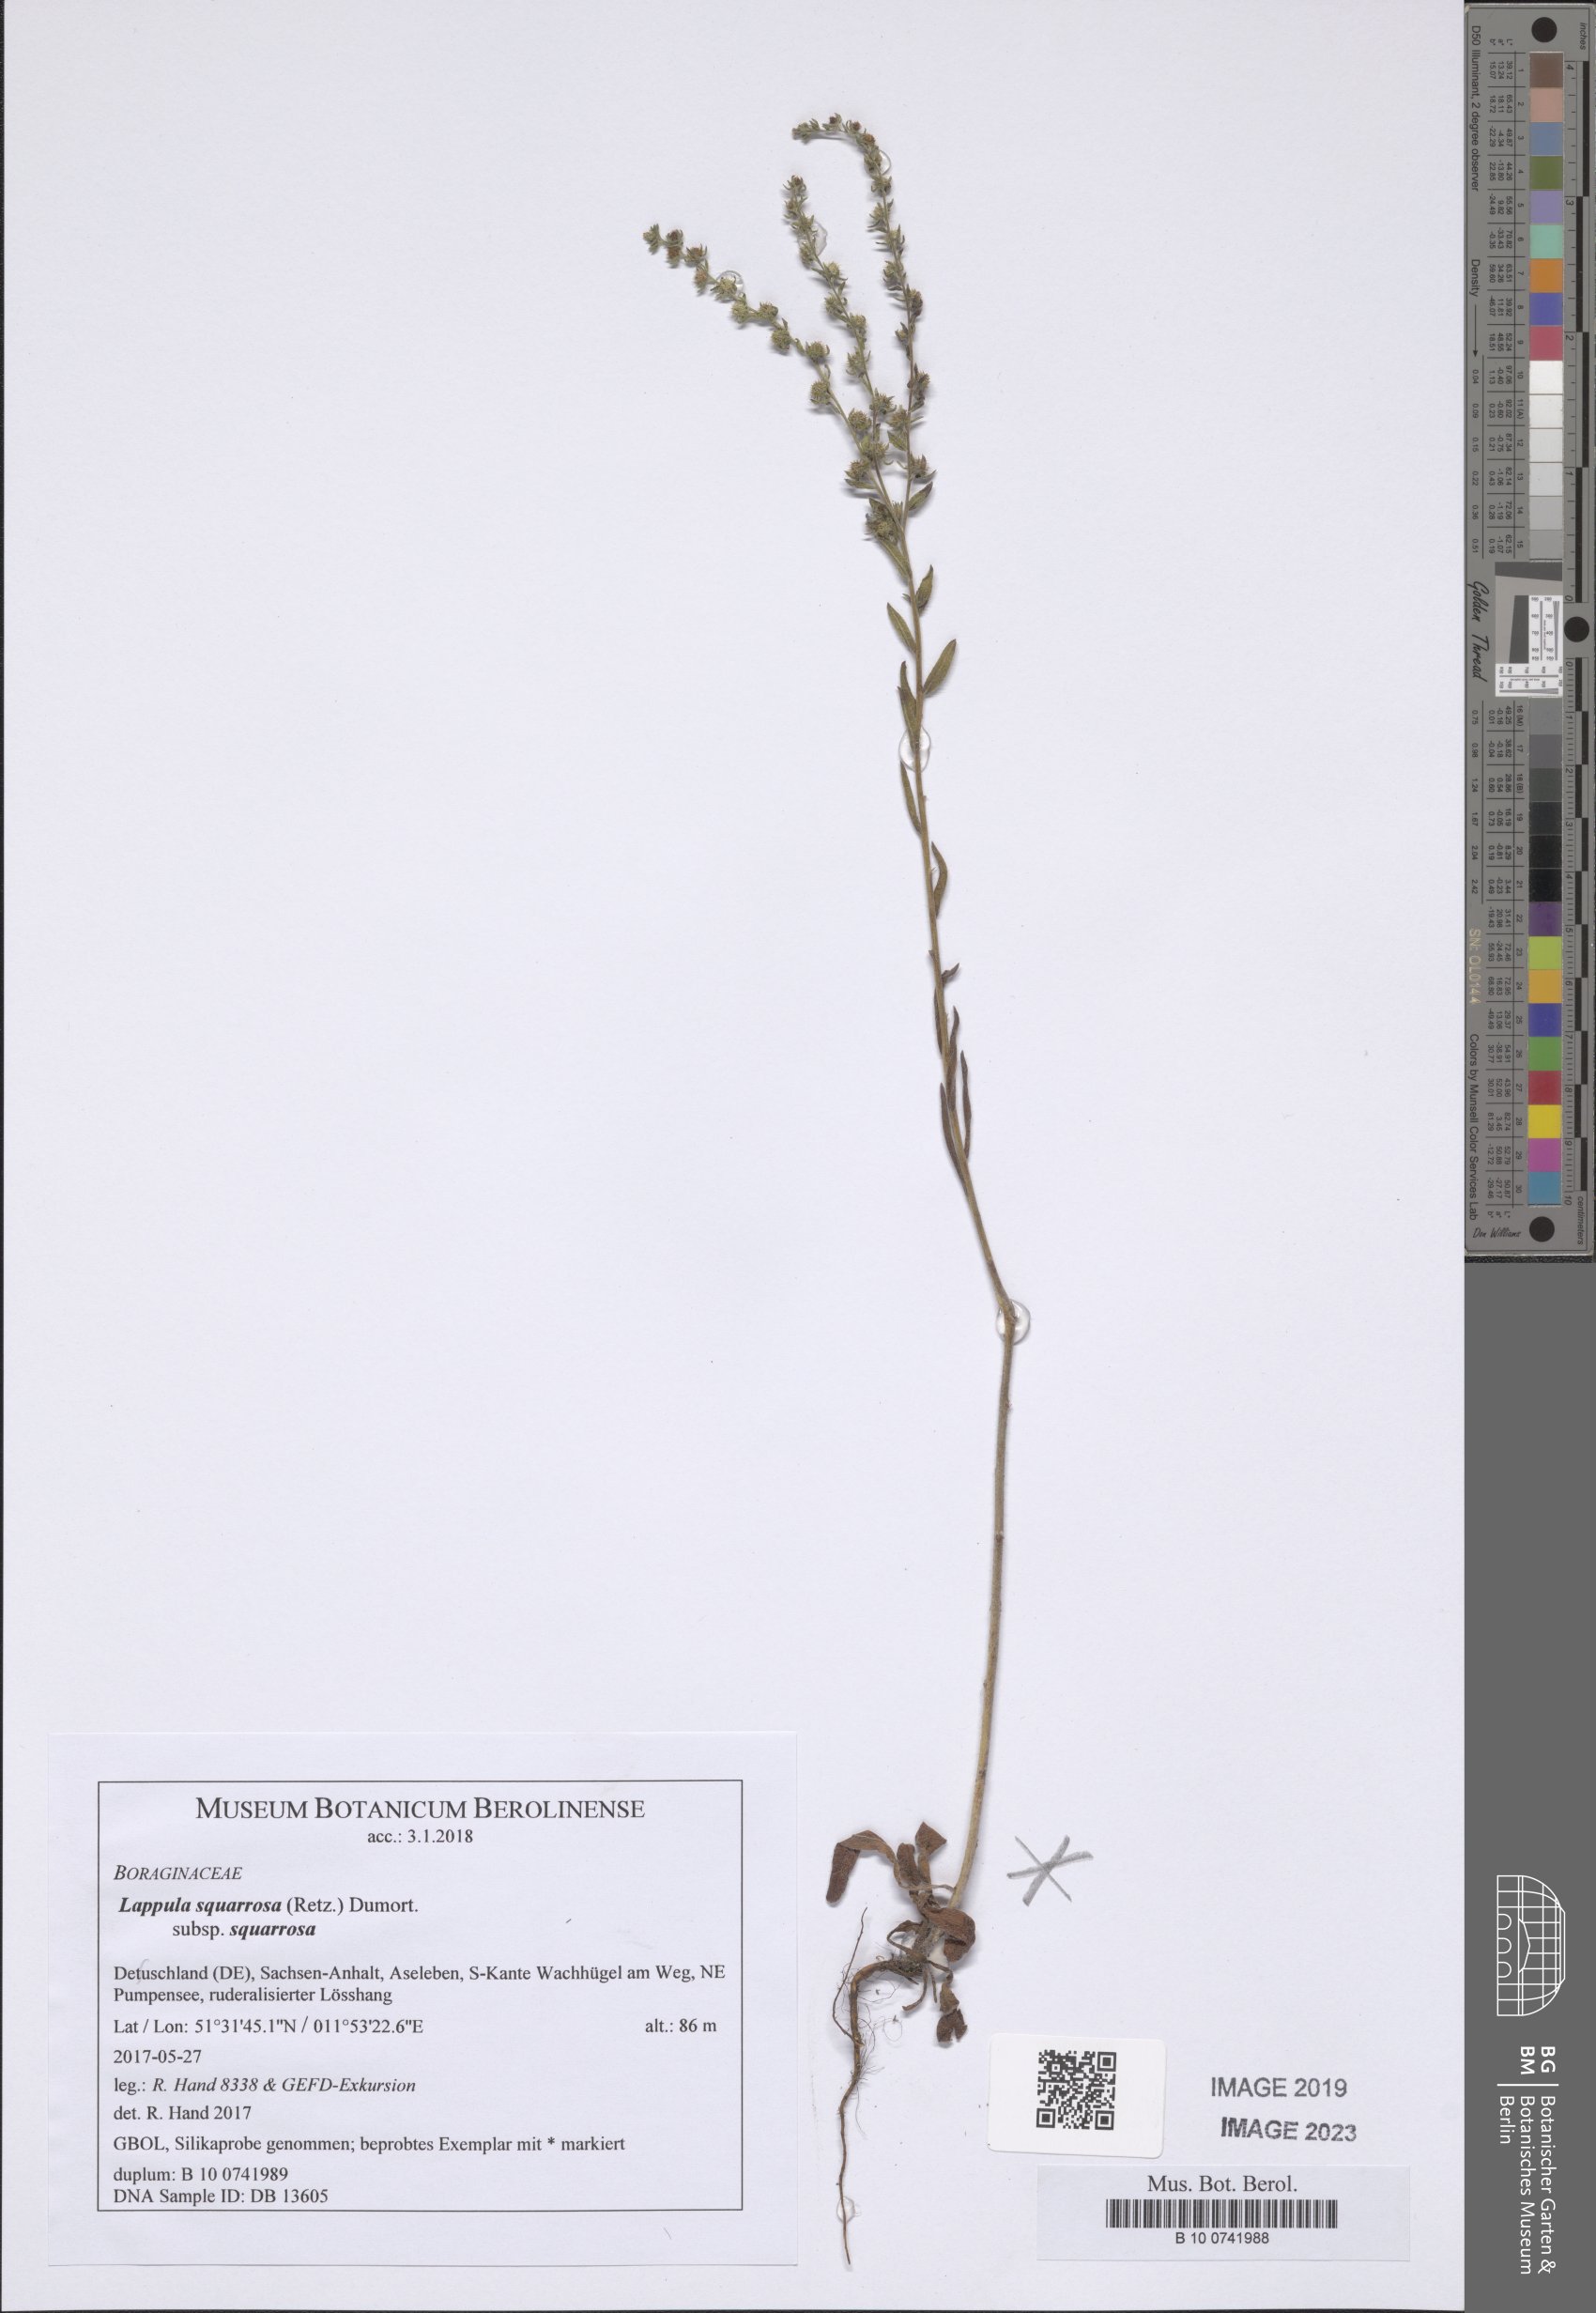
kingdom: Plantae
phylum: Tracheophyta
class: Magnoliopsida
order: Boraginales
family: Boraginaceae
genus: Lappula
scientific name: Lappula squarrosa
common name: European stickseed
